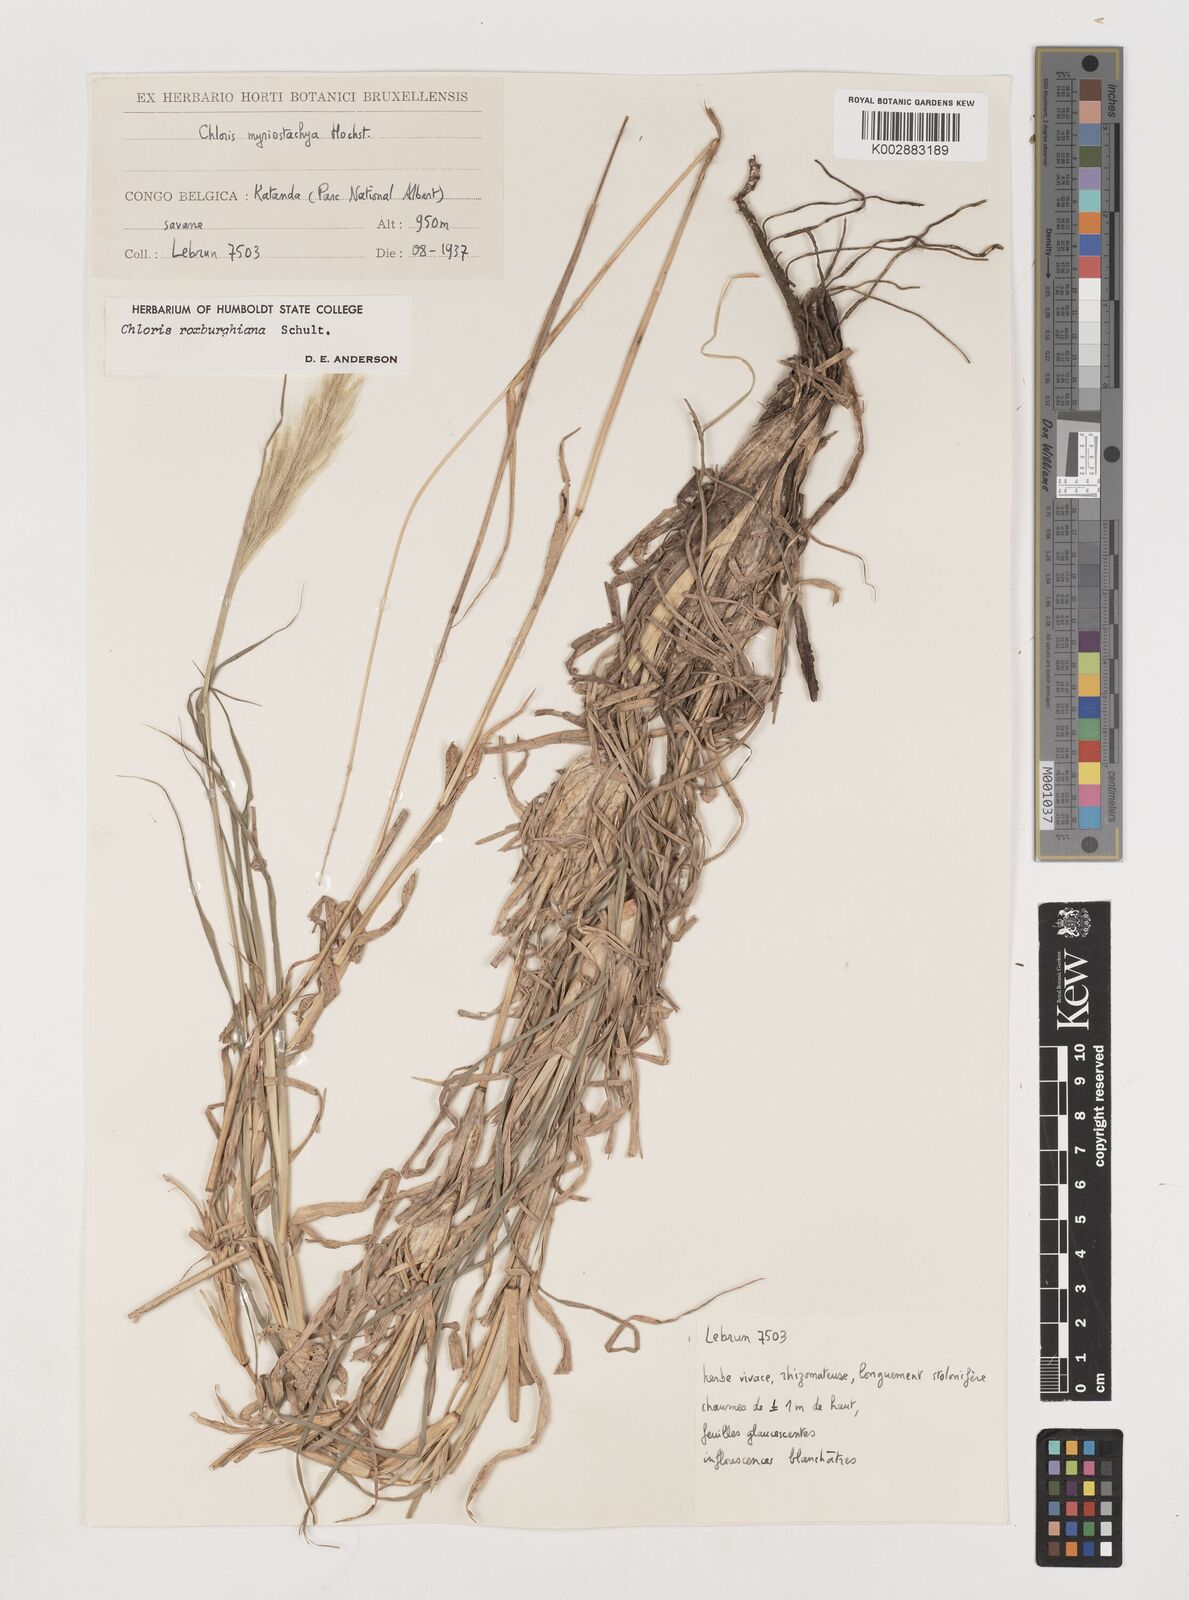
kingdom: Plantae
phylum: Tracheophyta
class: Liliopsida
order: Poales
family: Poaceae
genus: Tetrapogon
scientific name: Tetrapogon roxburghiana
